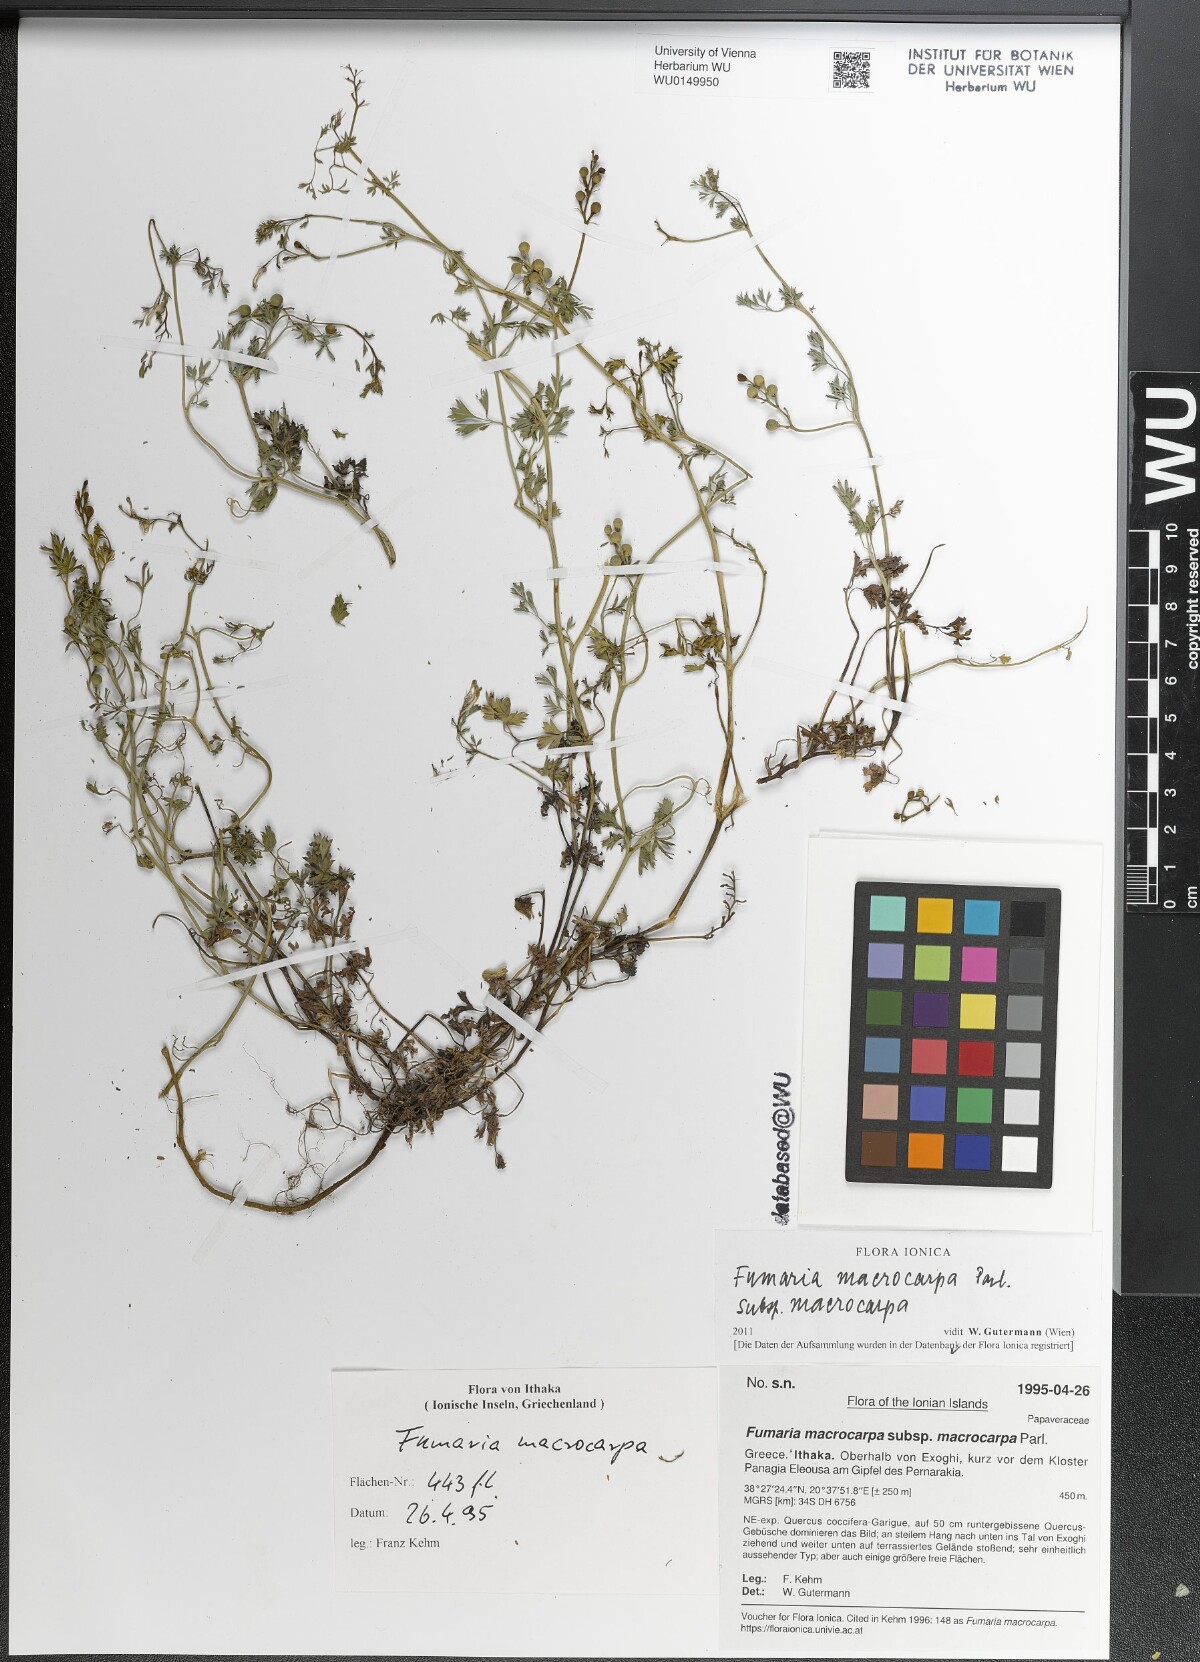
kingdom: Plantae
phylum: Tracheophyta
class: Magnoliopsida
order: Ranunculales
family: Papaveraceae
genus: Fumaria
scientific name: Fumaria macrocarpa
